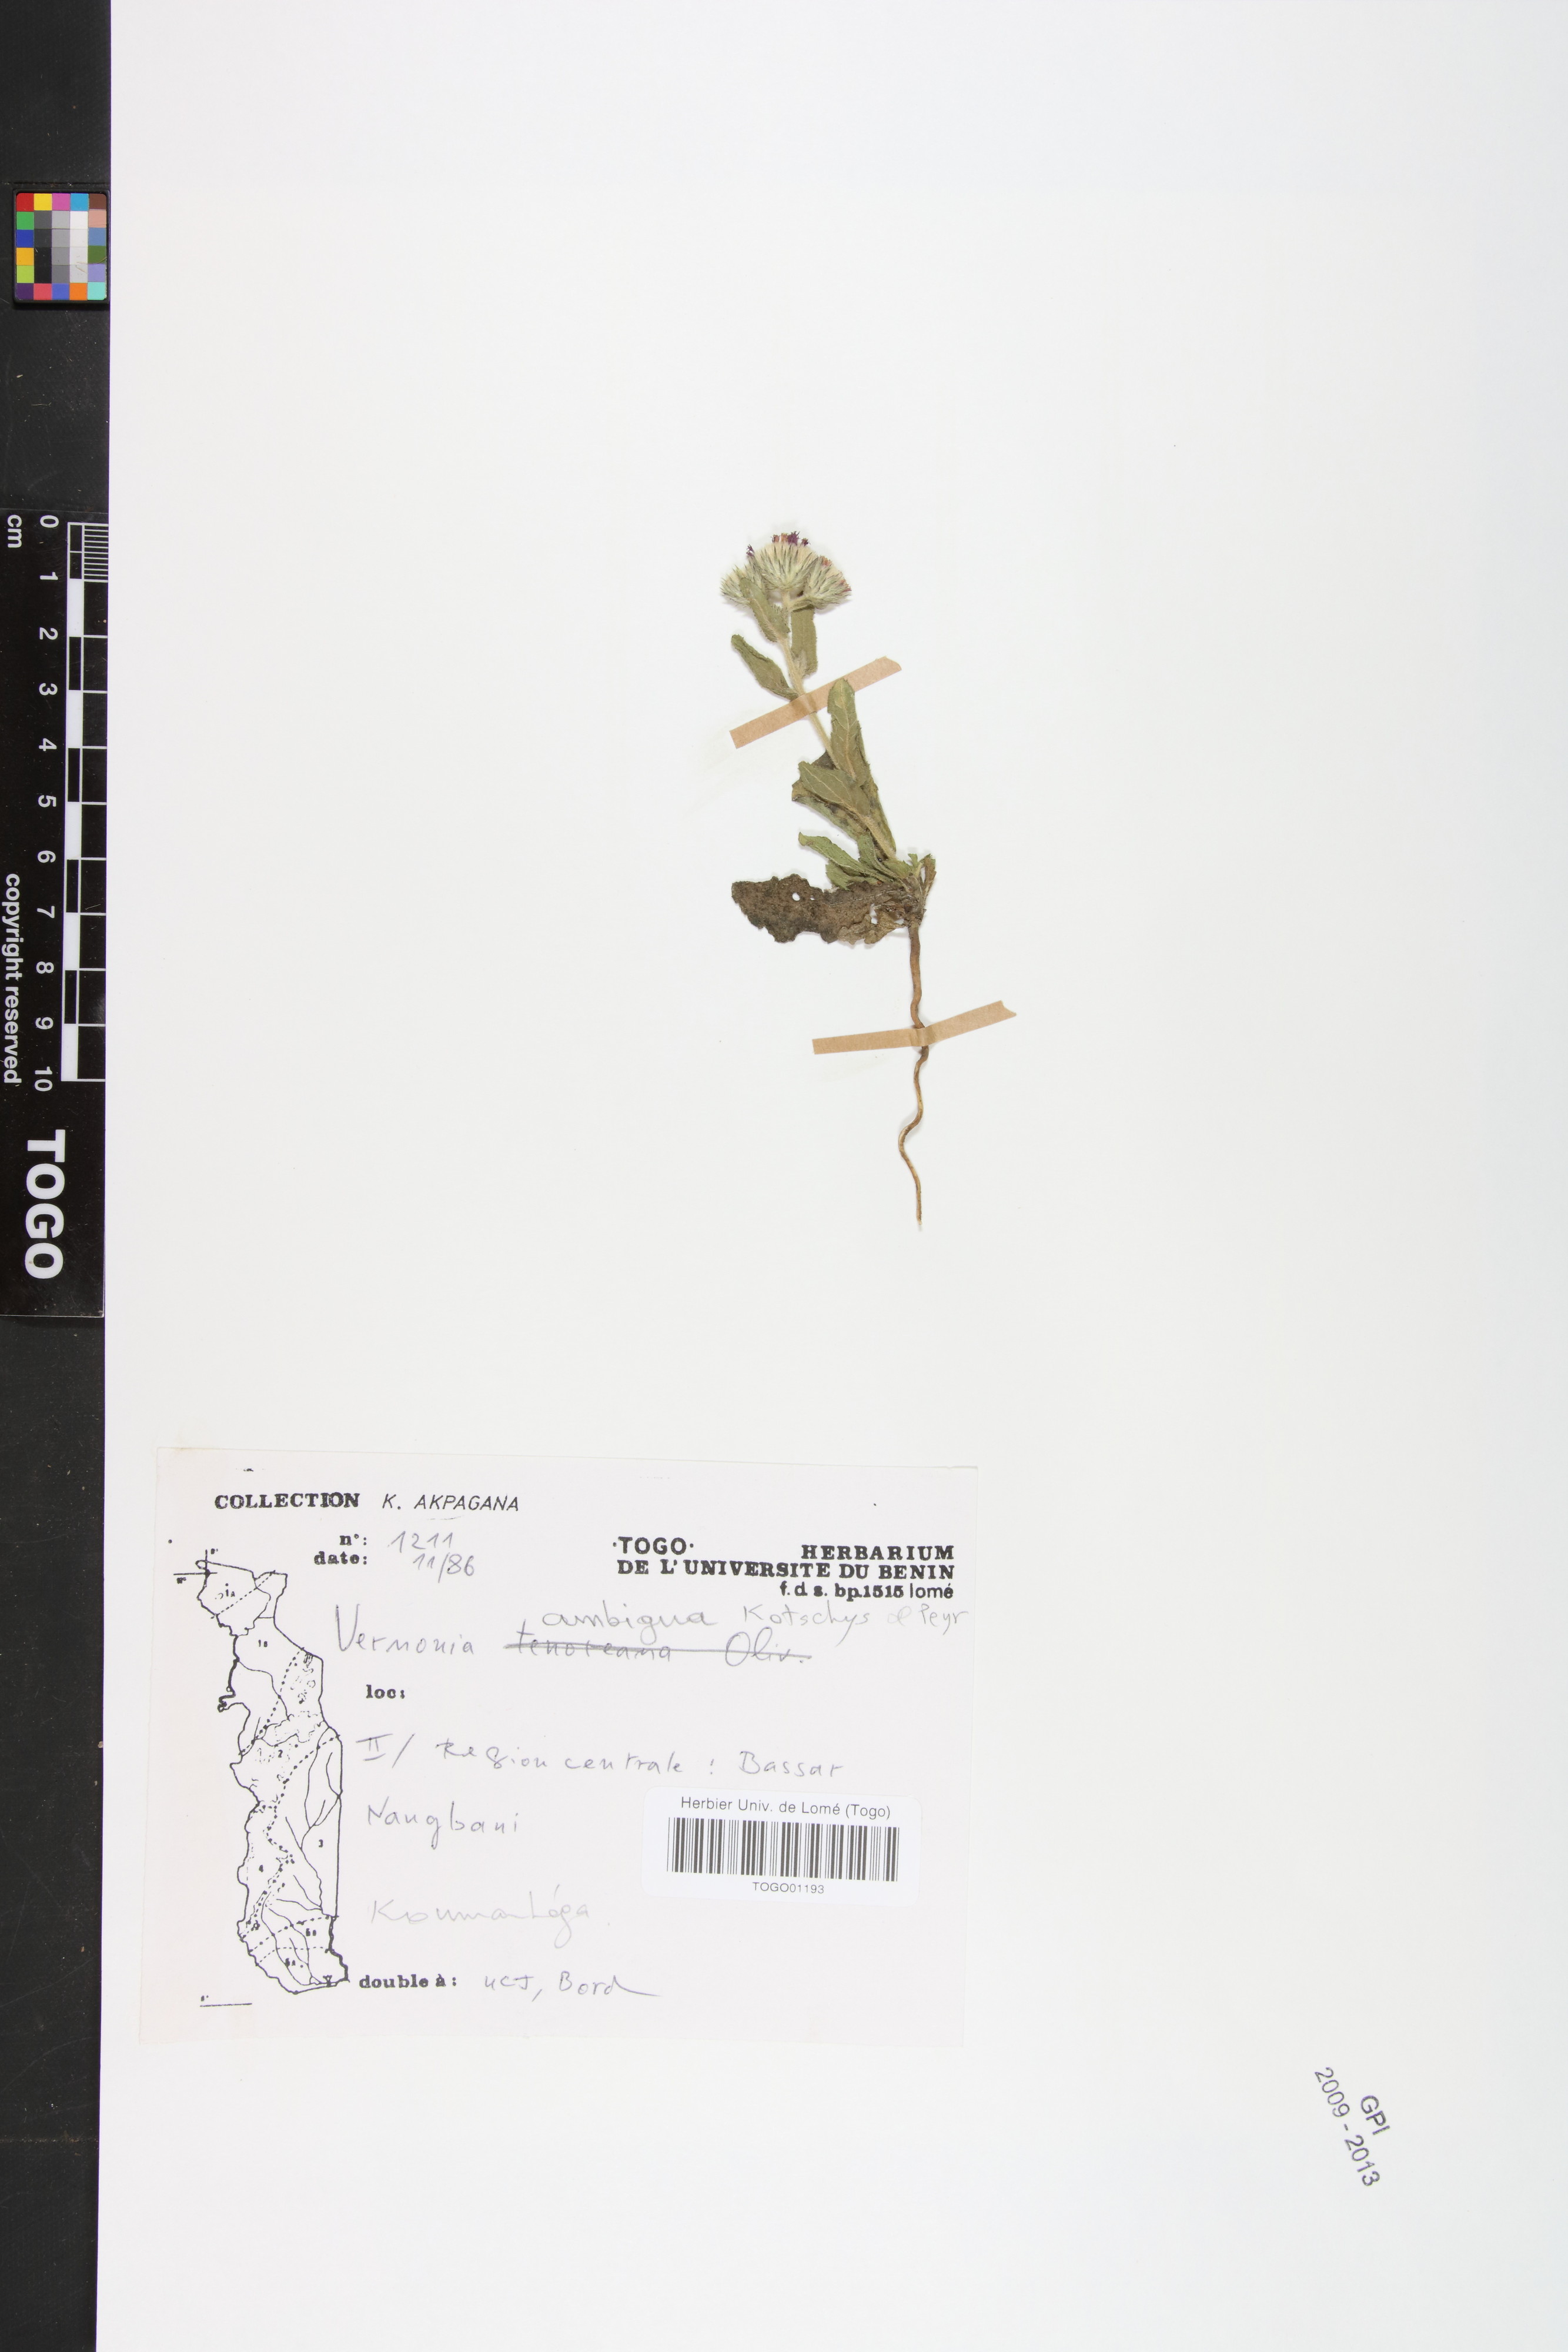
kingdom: Plantae
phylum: Tracheophyta
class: Magnoliopsida
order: Asterales
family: Asteraceae
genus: Vernoniastrum
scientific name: Vernoniastrum ambiguum
